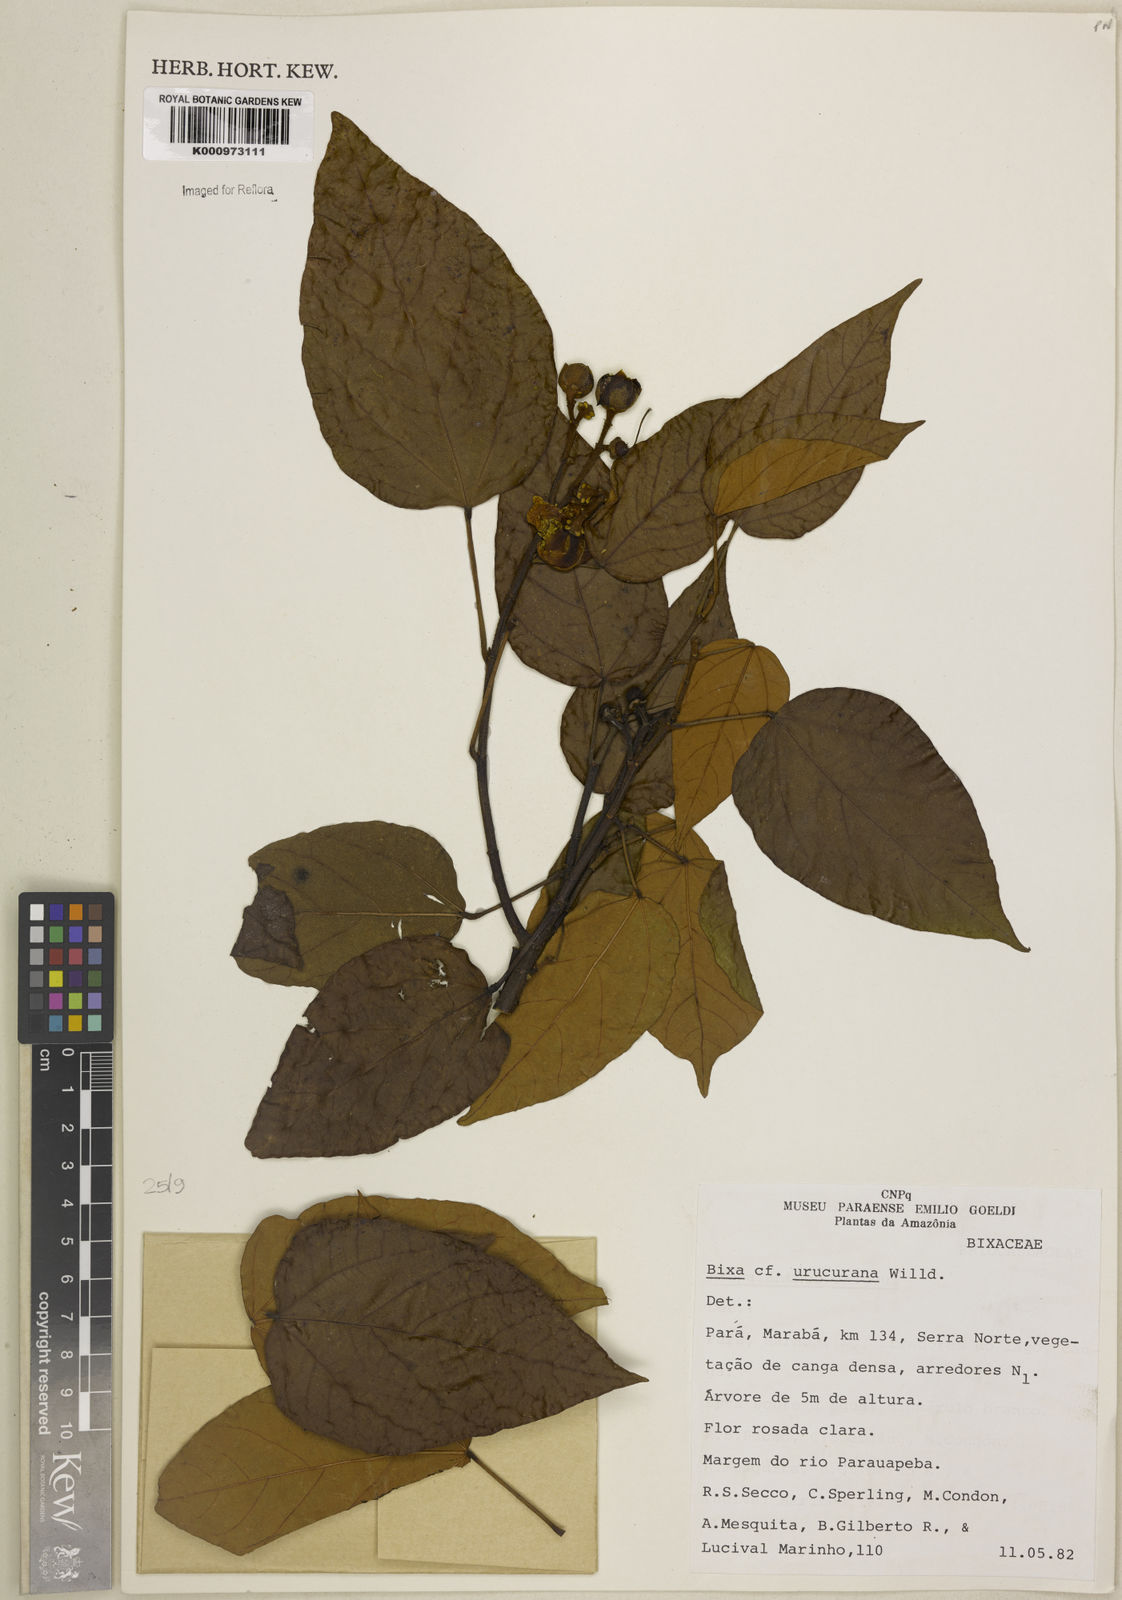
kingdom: Plantae
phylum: Tracheophyta
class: Magnoliopsida
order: Malvales
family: Bixaceae
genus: Bixa
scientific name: Bixa urucurana
